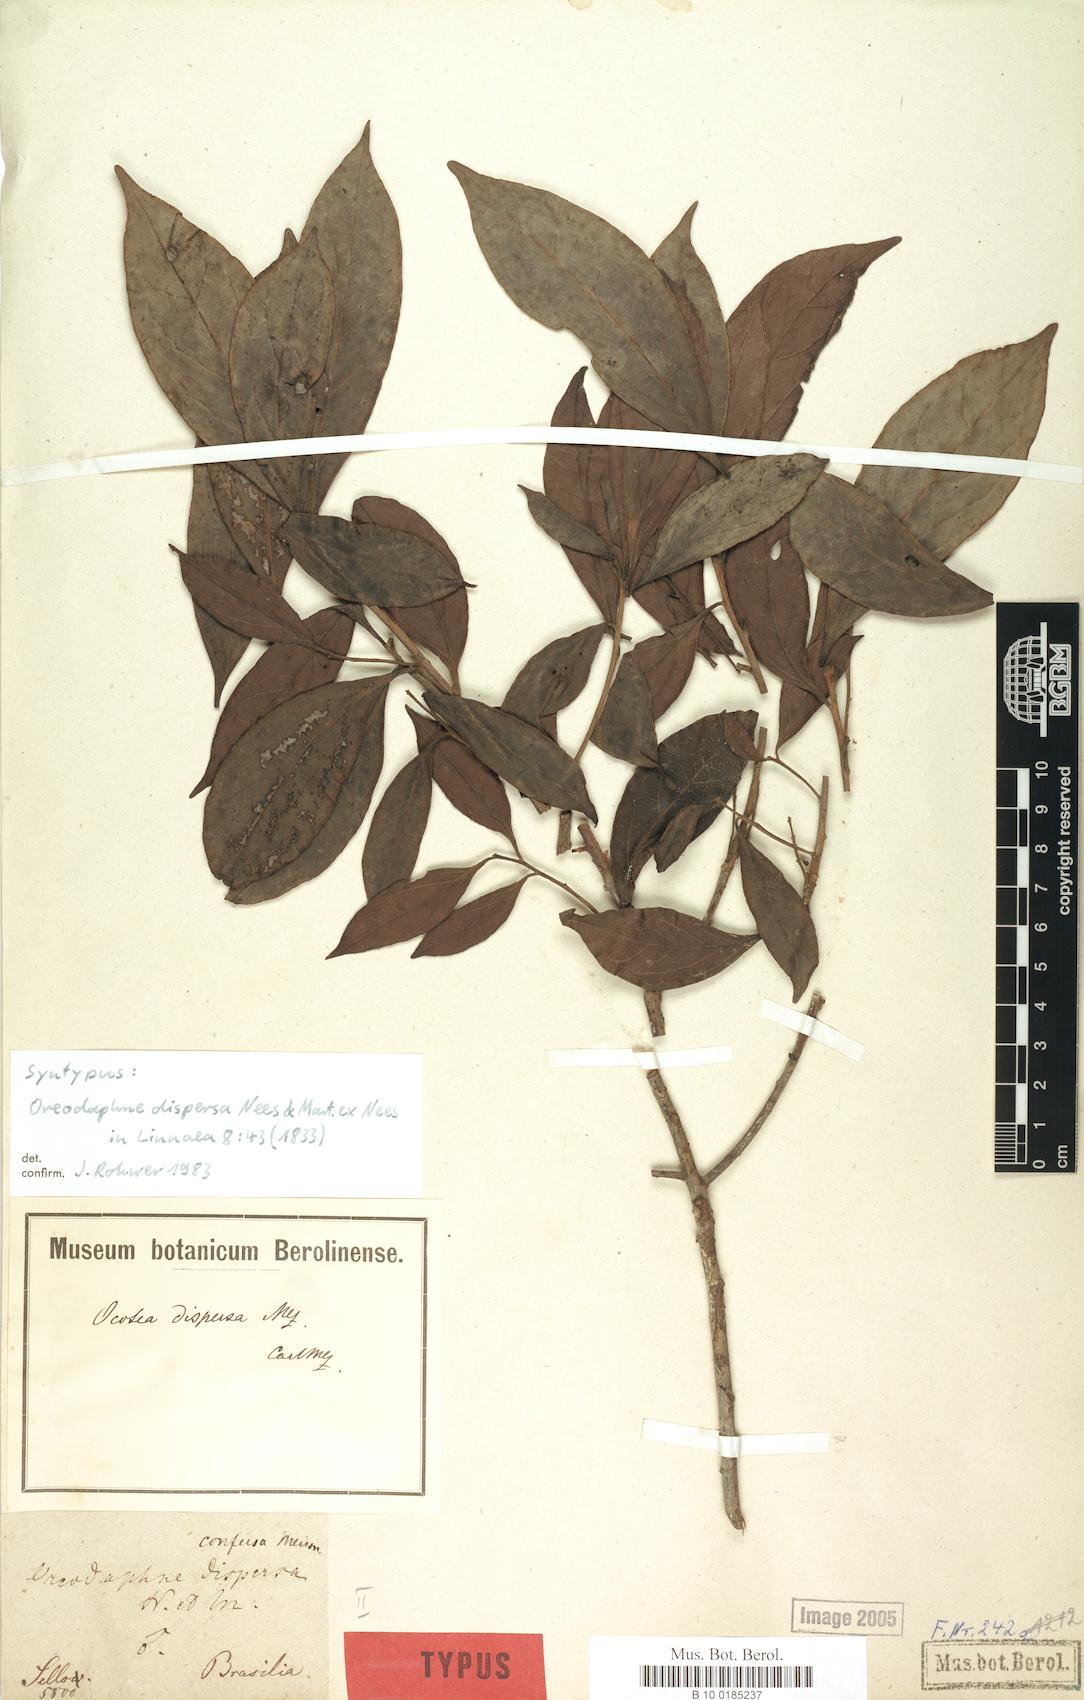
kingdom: Plantae
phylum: Tracheophyta
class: Magnoliopsida
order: Laurales
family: Lauraceae
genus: Ocotea
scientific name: Ocotea dispersa
